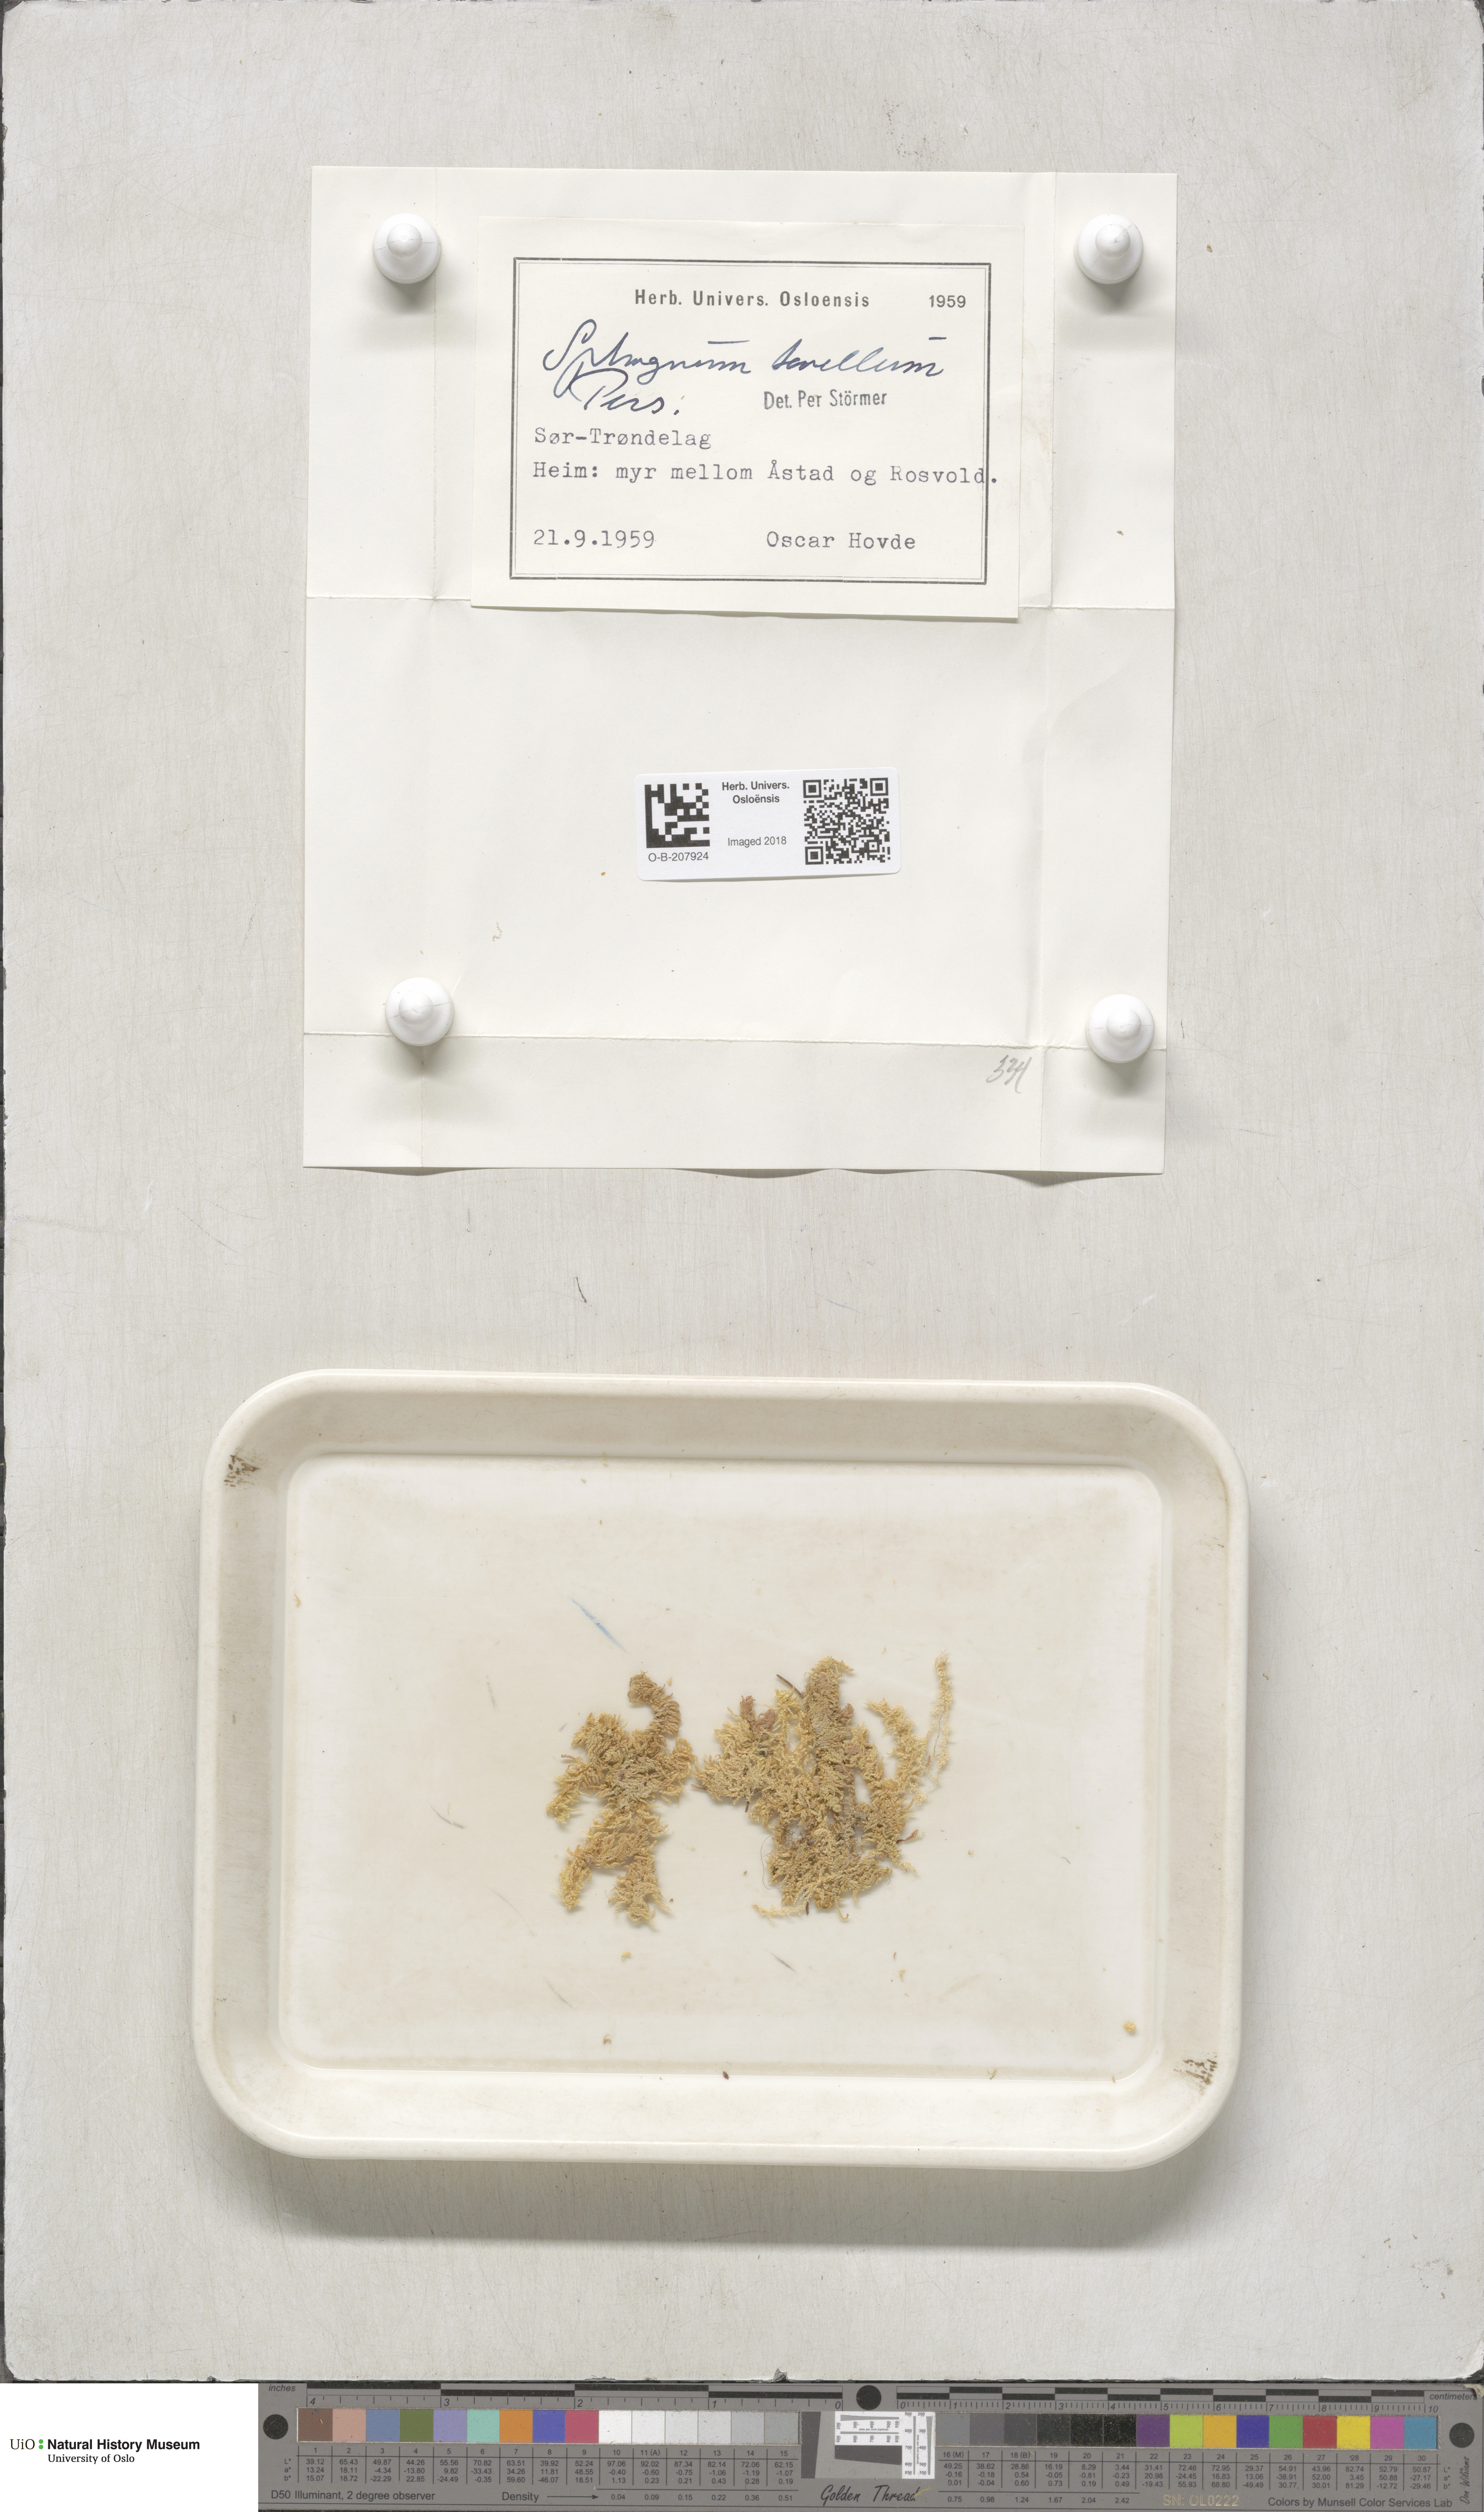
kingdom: Plantae
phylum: Bryophyta
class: Sphagnopsida
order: Sphagnales
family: Sphagnaceae
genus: Sphagnum
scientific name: Sphagnum tenellum
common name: Soft bog-moss
